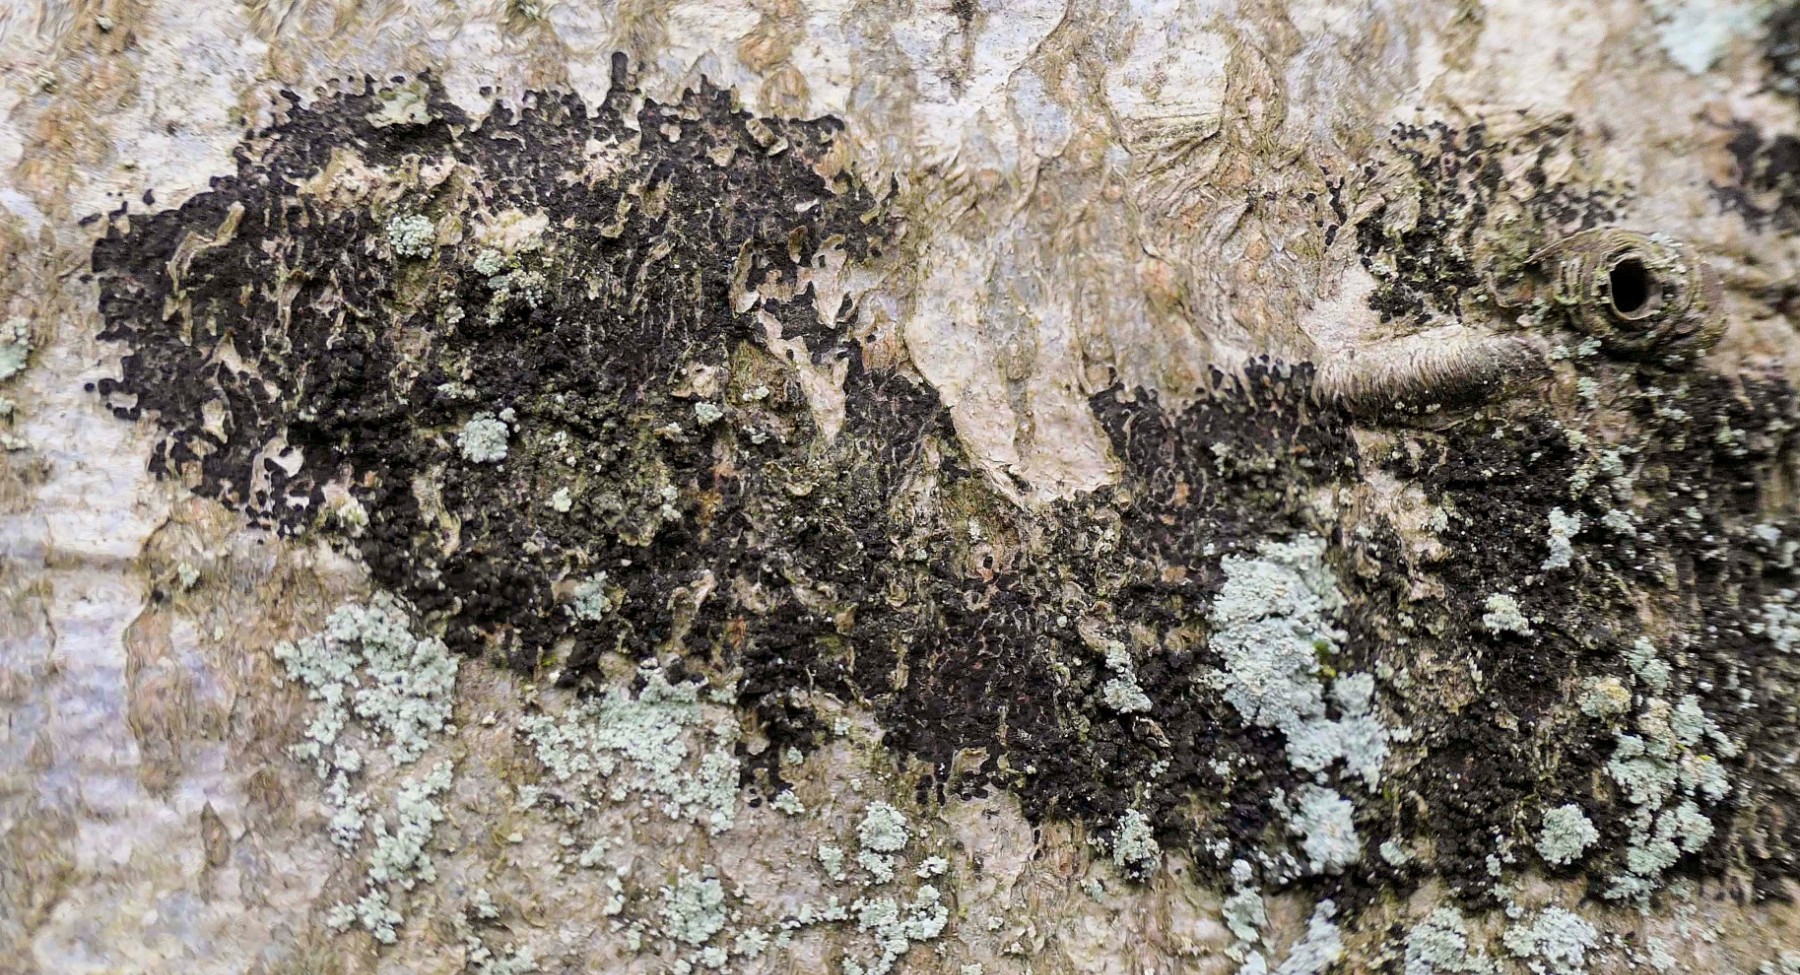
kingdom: Fungi
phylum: Ascomycota
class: Leotiomycetes
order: Rhytismatales
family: Ascodichaenaceae
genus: Ascodichaena
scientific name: Ascodichaena rugosa
